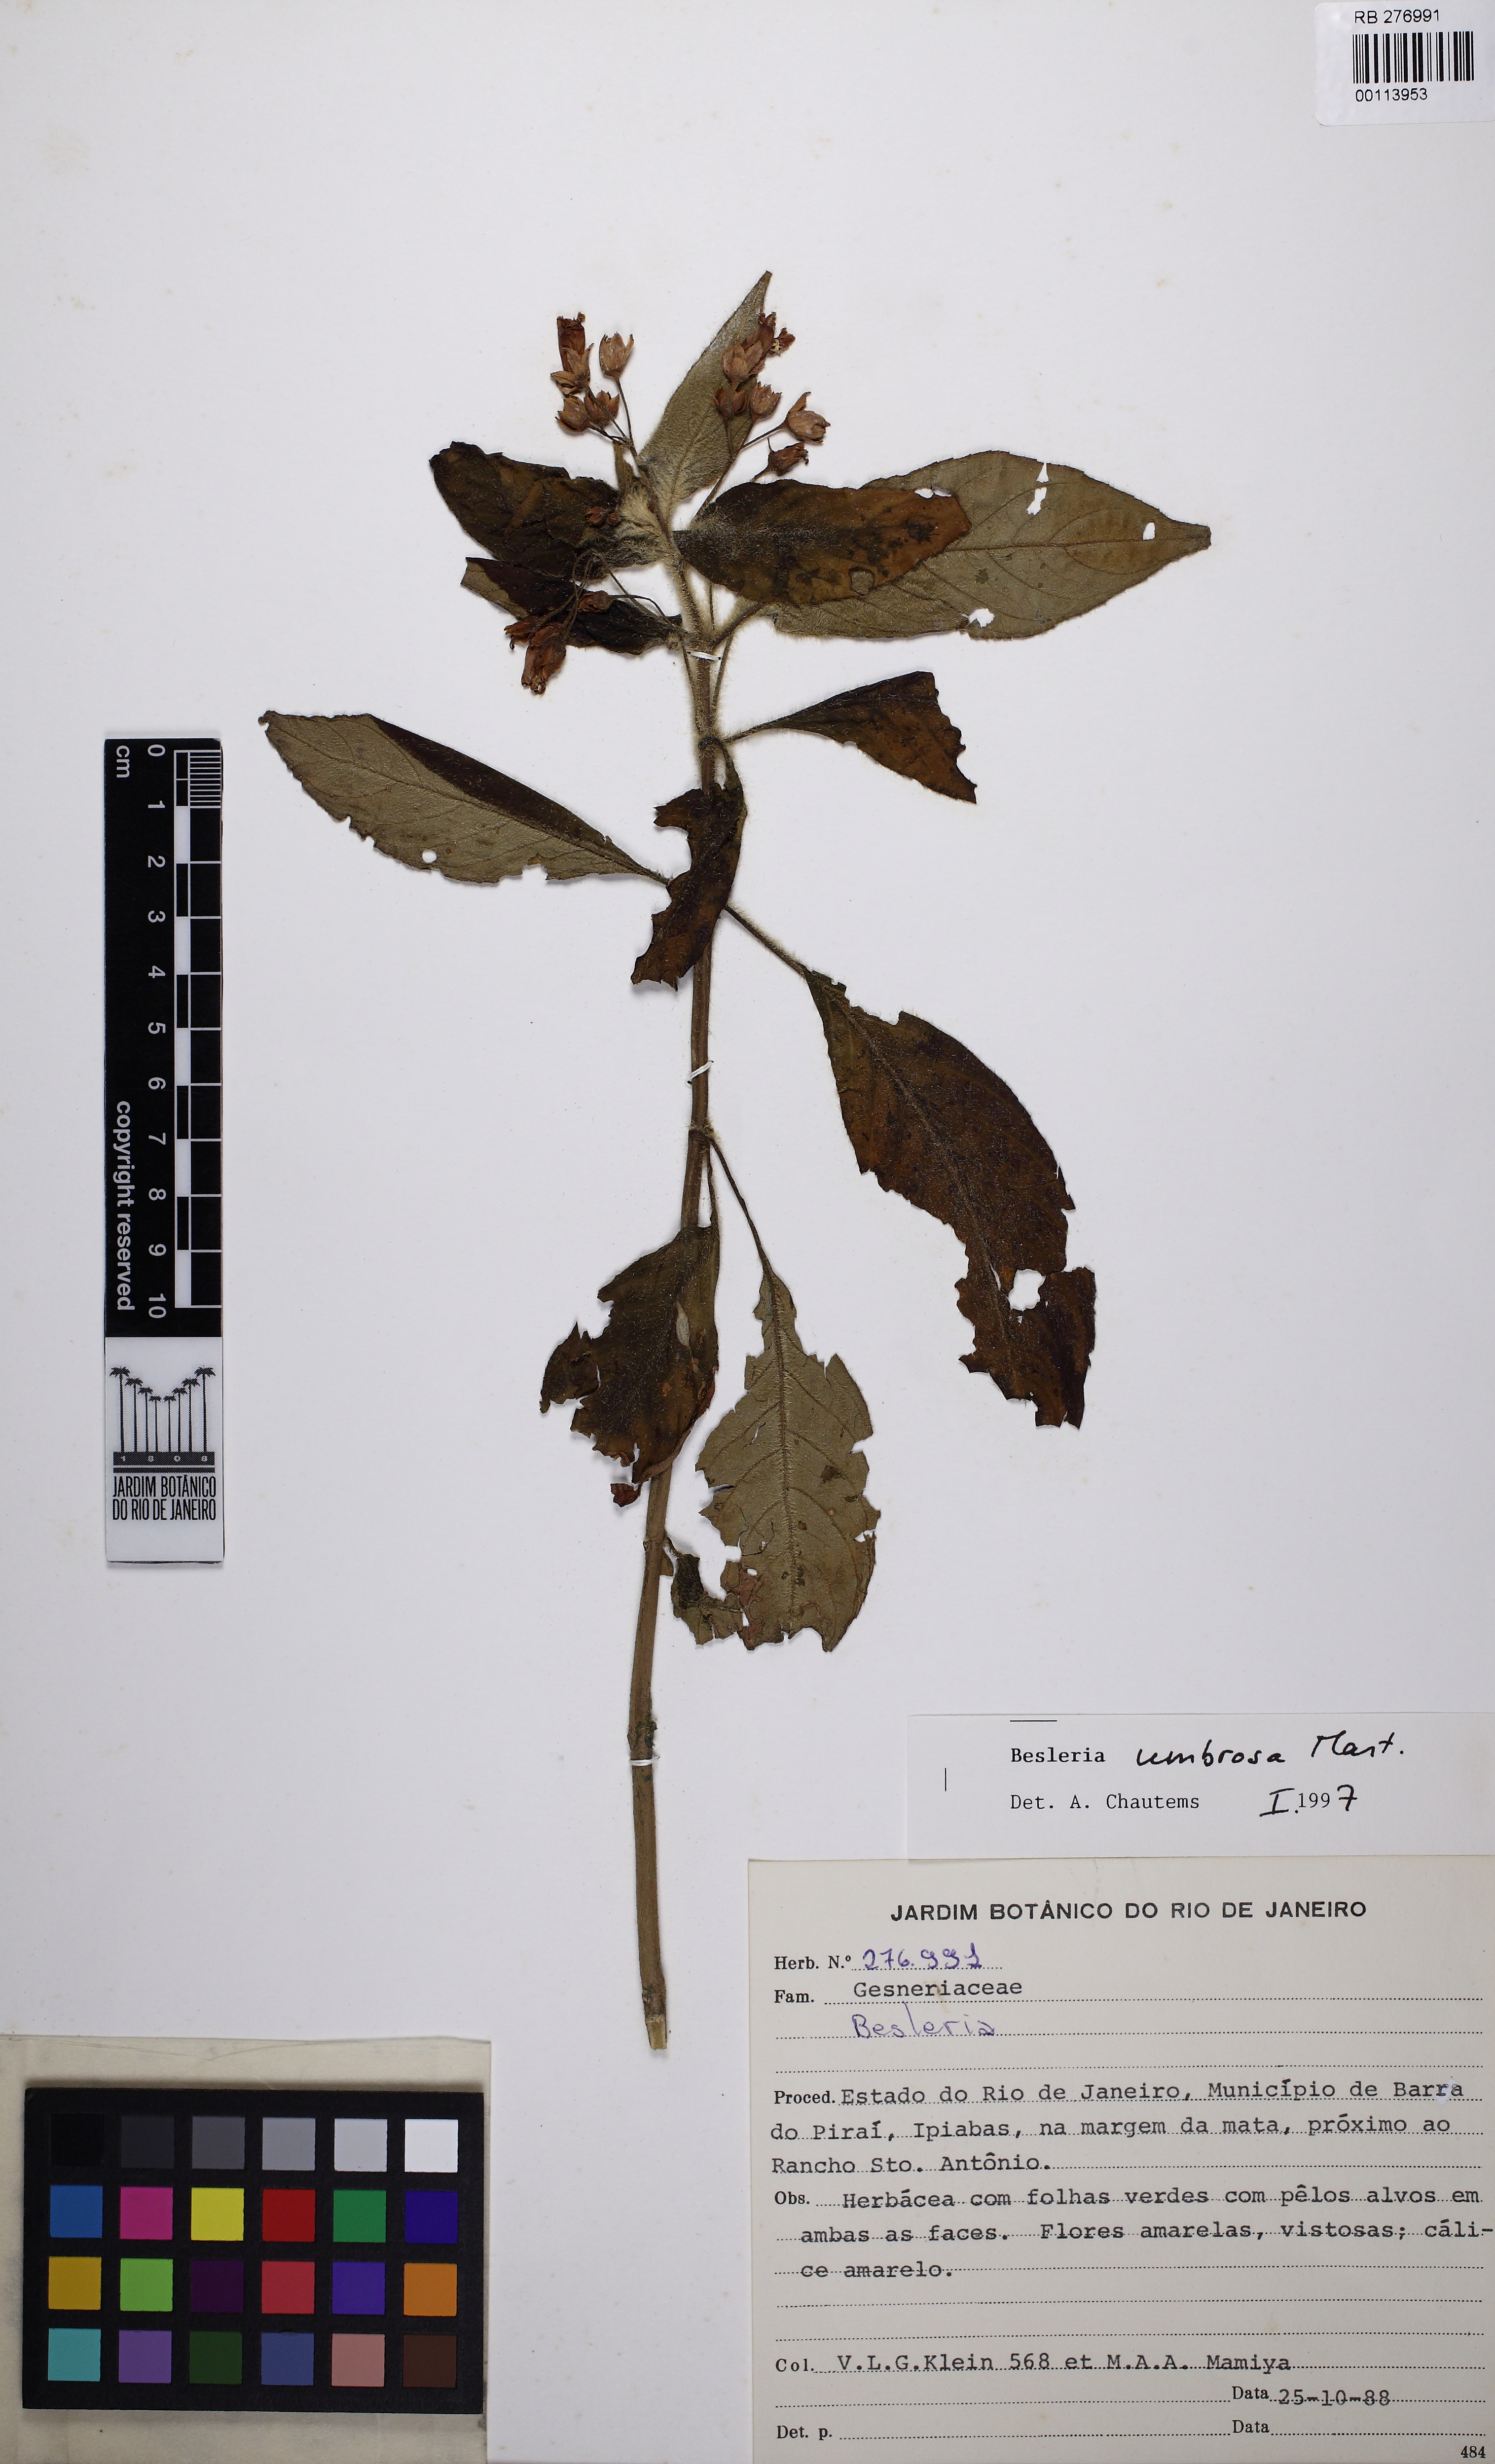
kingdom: Plantae
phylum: Tracheophyta
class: Magnoliopsida
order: Lamiales
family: Gesneriaceae
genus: Besleria
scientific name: Besleria umbrosa
